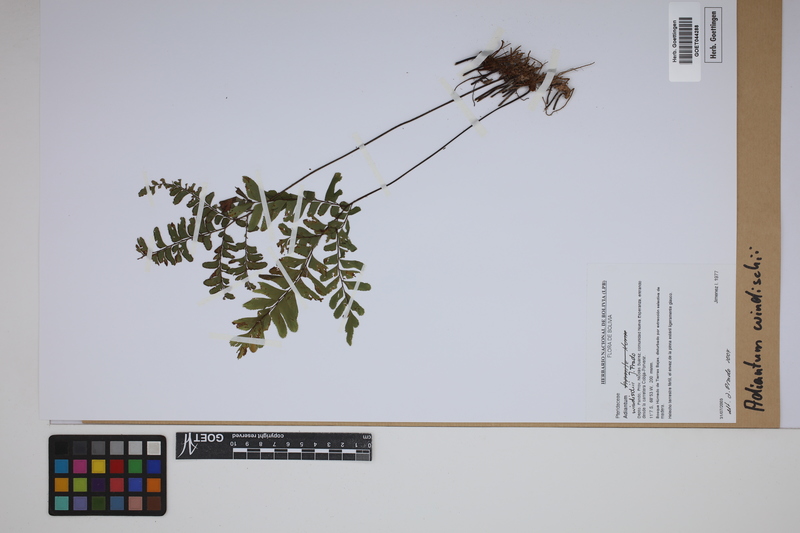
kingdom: Plantae
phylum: Tracheophyta
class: Polypodiopsida
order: Polypodiales
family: Pteridaceae
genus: Adiantum
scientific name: Adiantum windischii
